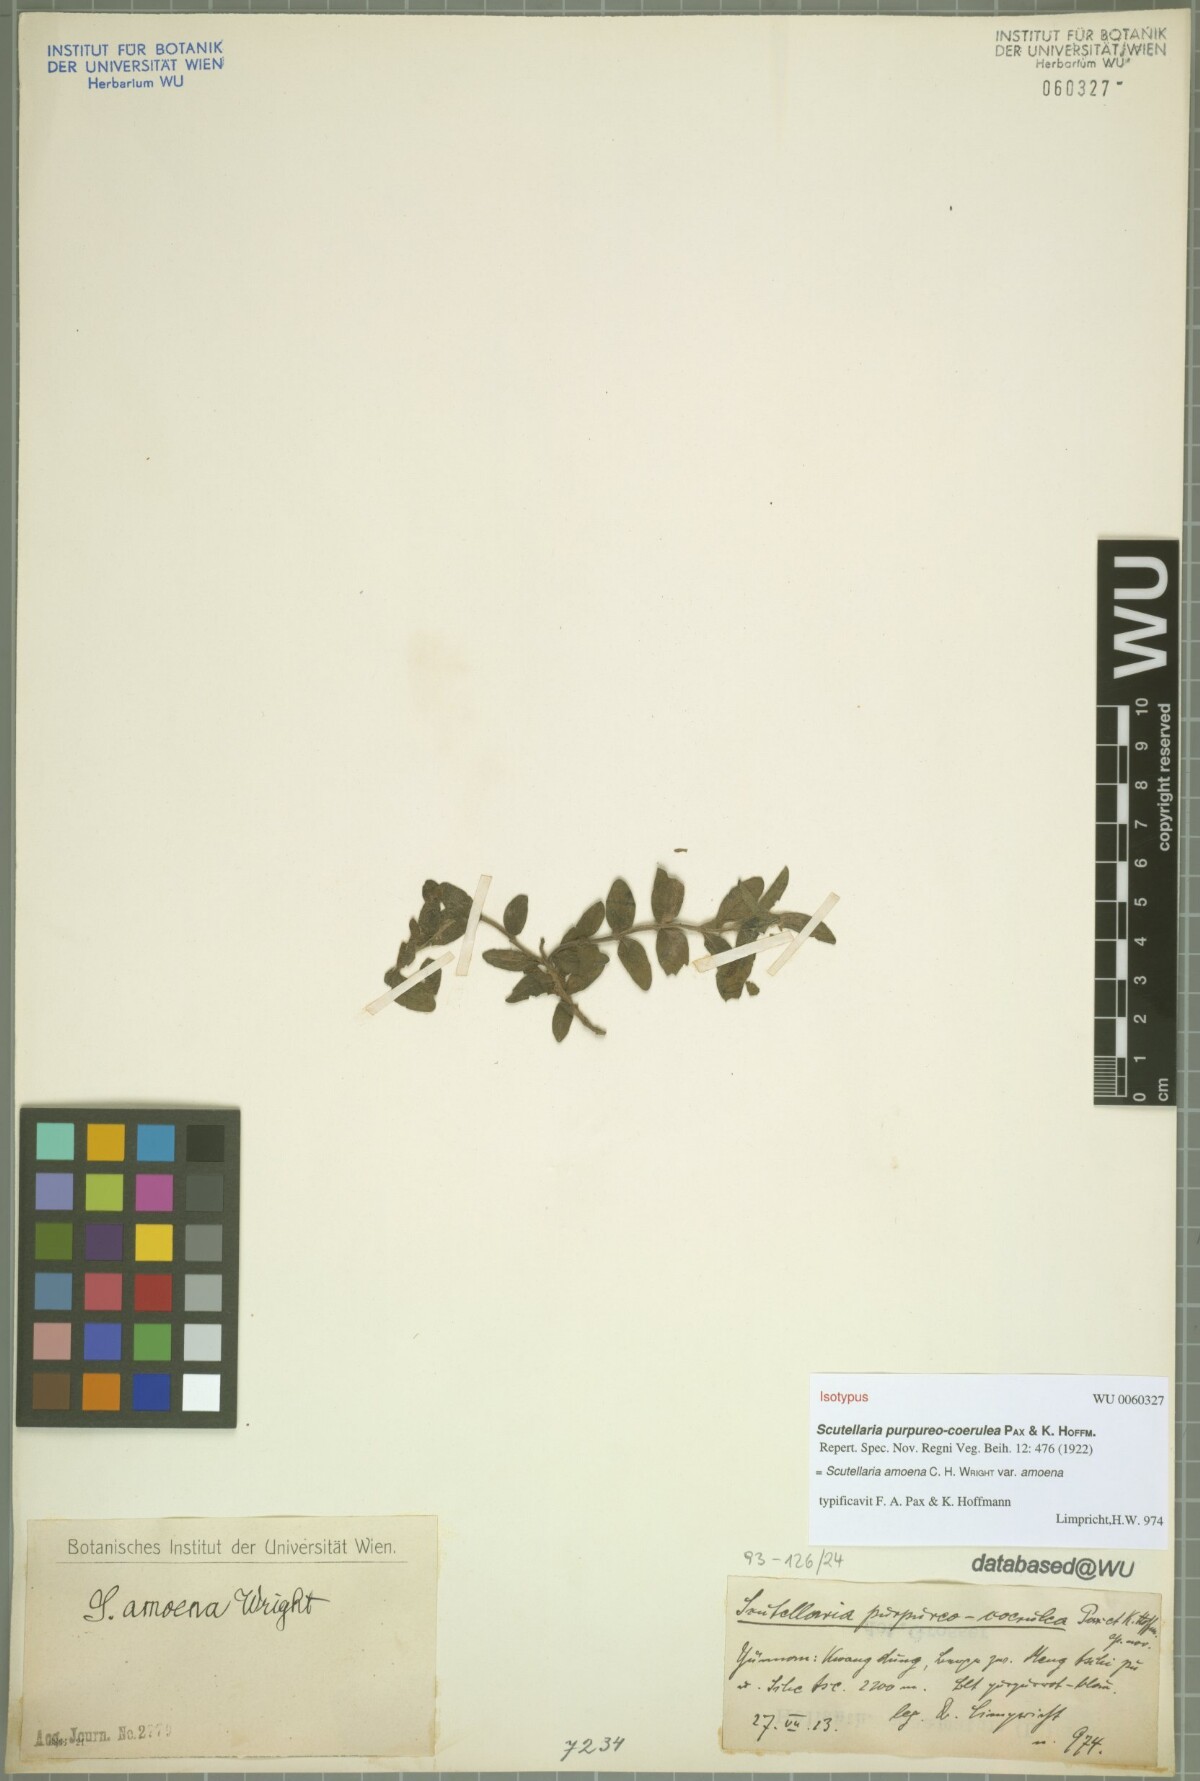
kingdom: Plantae
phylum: Tracheophyta
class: Magnoliopsida
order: Lamiales
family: Lamiaceae
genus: Scutellaria
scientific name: Scutellaria amoena
